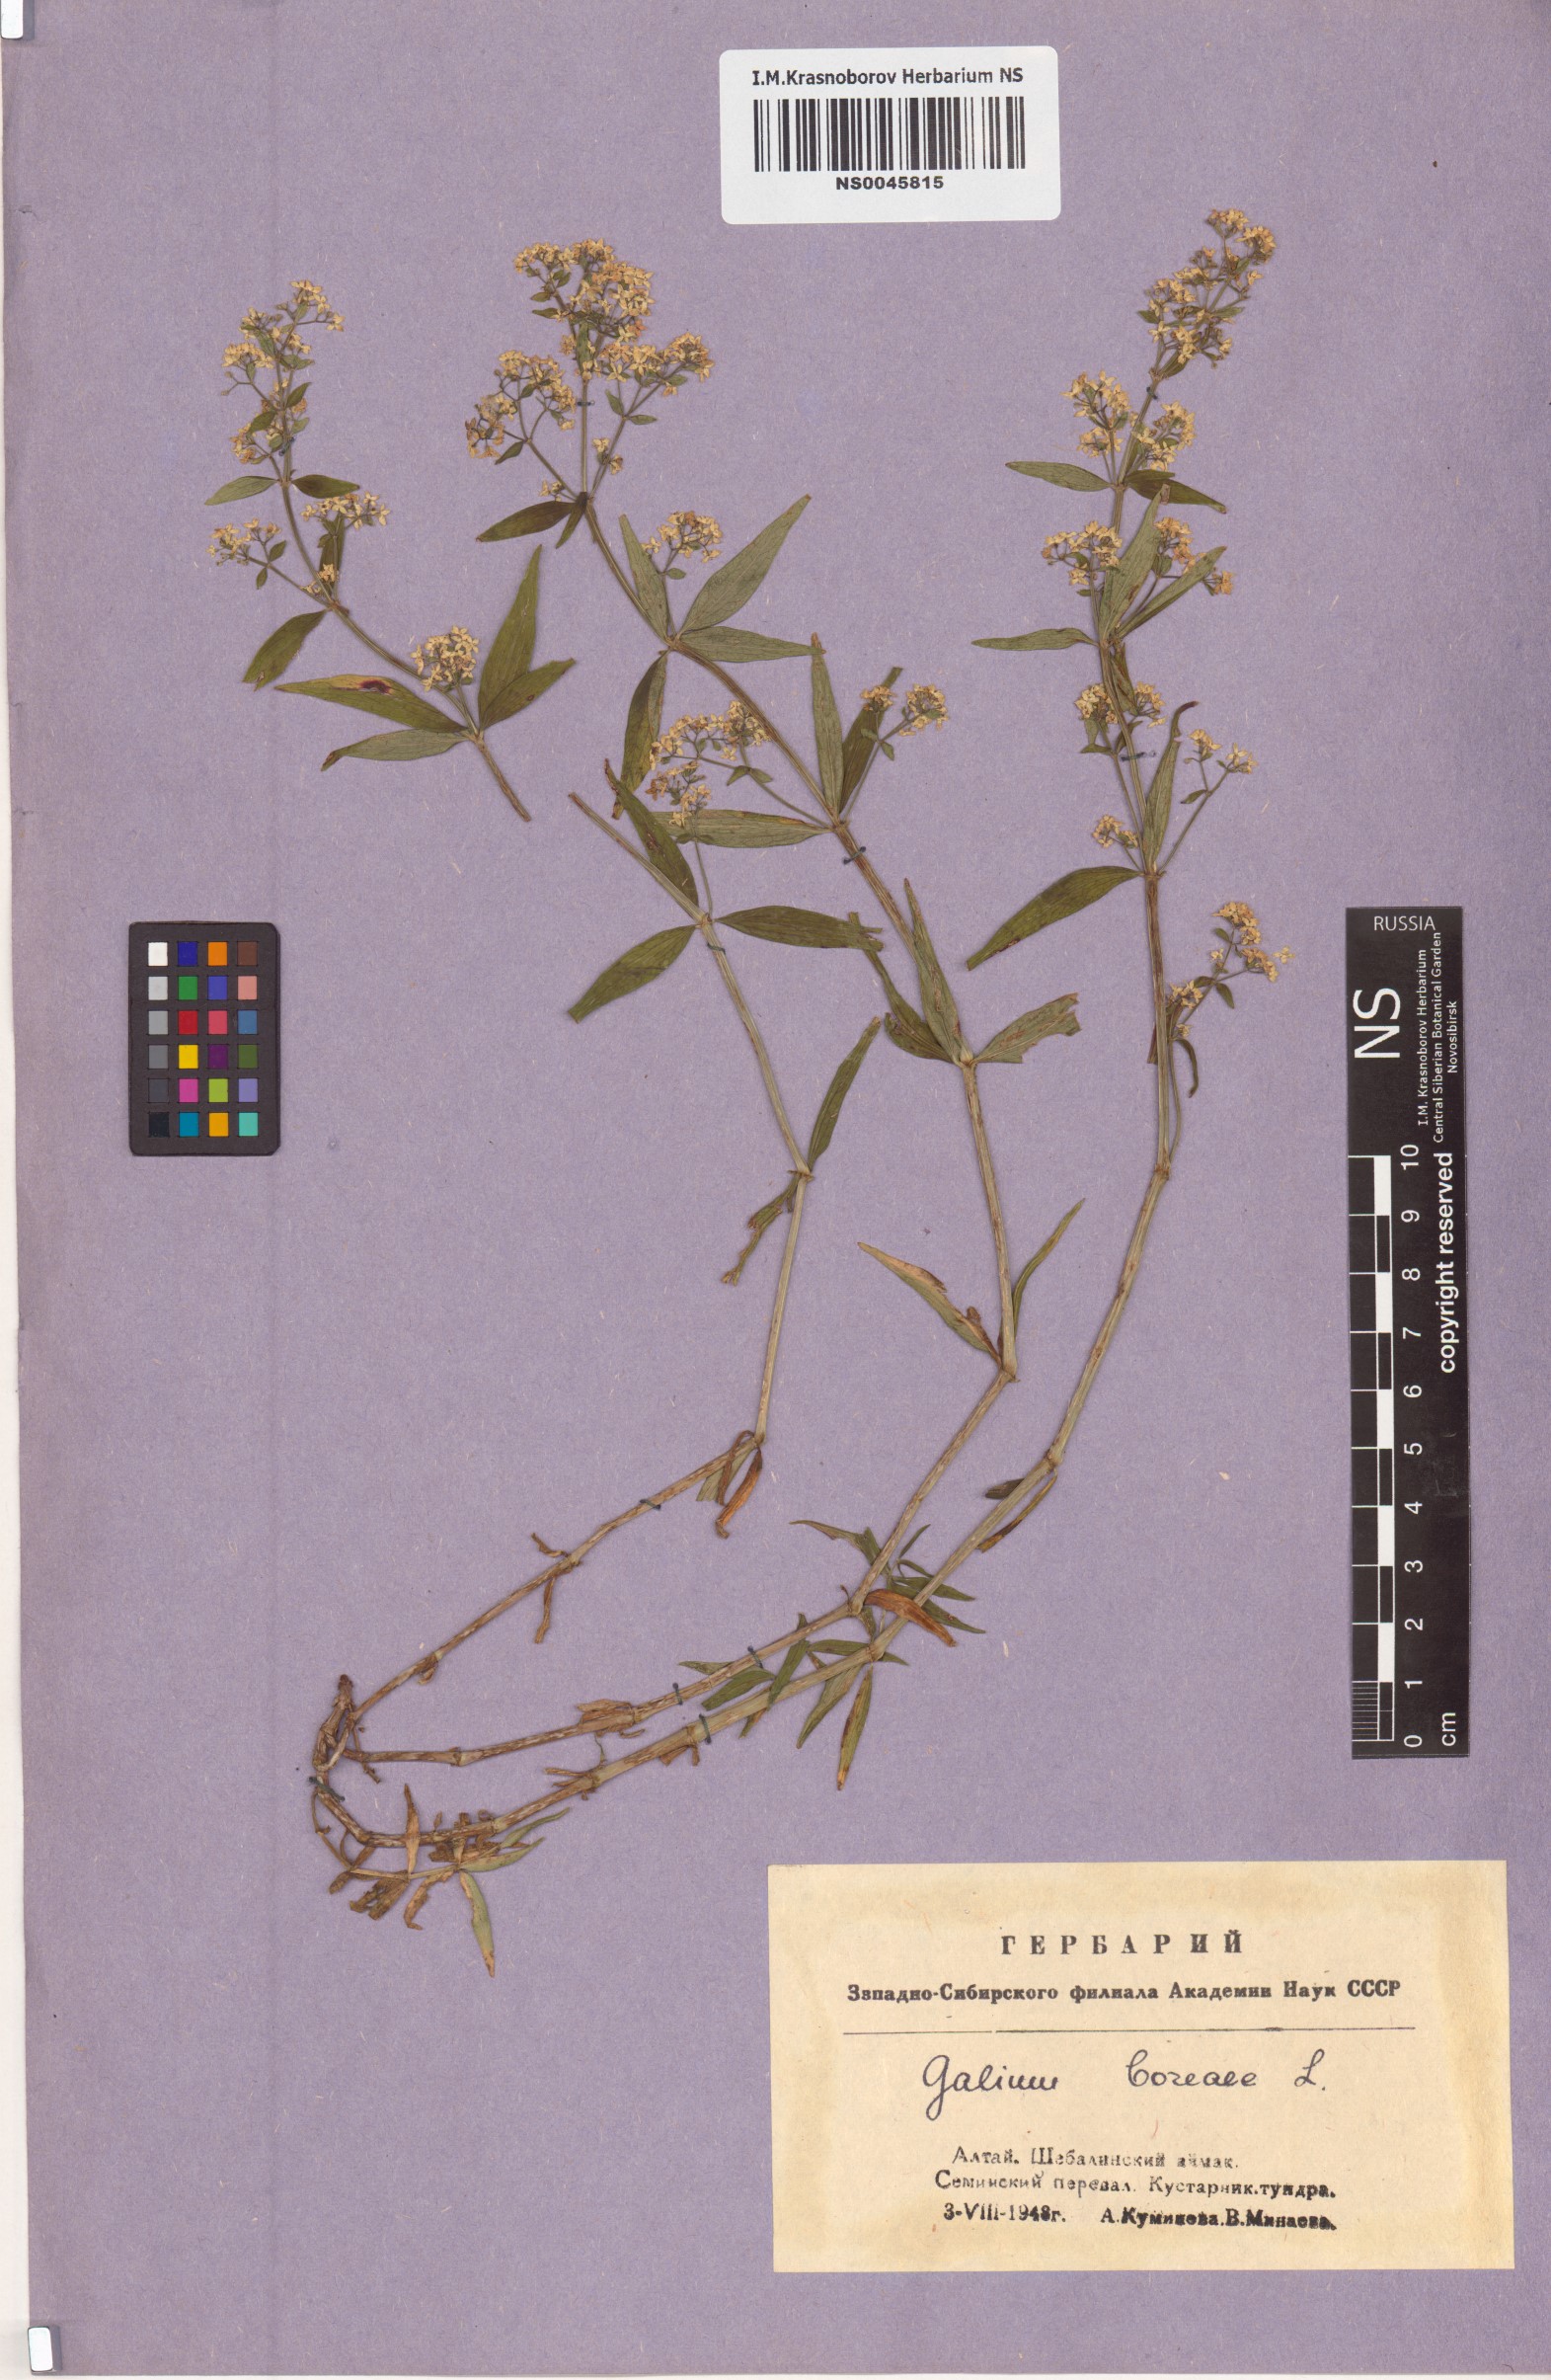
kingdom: Plantae
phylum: Tracheophyta
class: Magnoliopsida
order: Gentianales
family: Rubiaceae
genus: Galium
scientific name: Galium boreale
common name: Northern bedstraw
